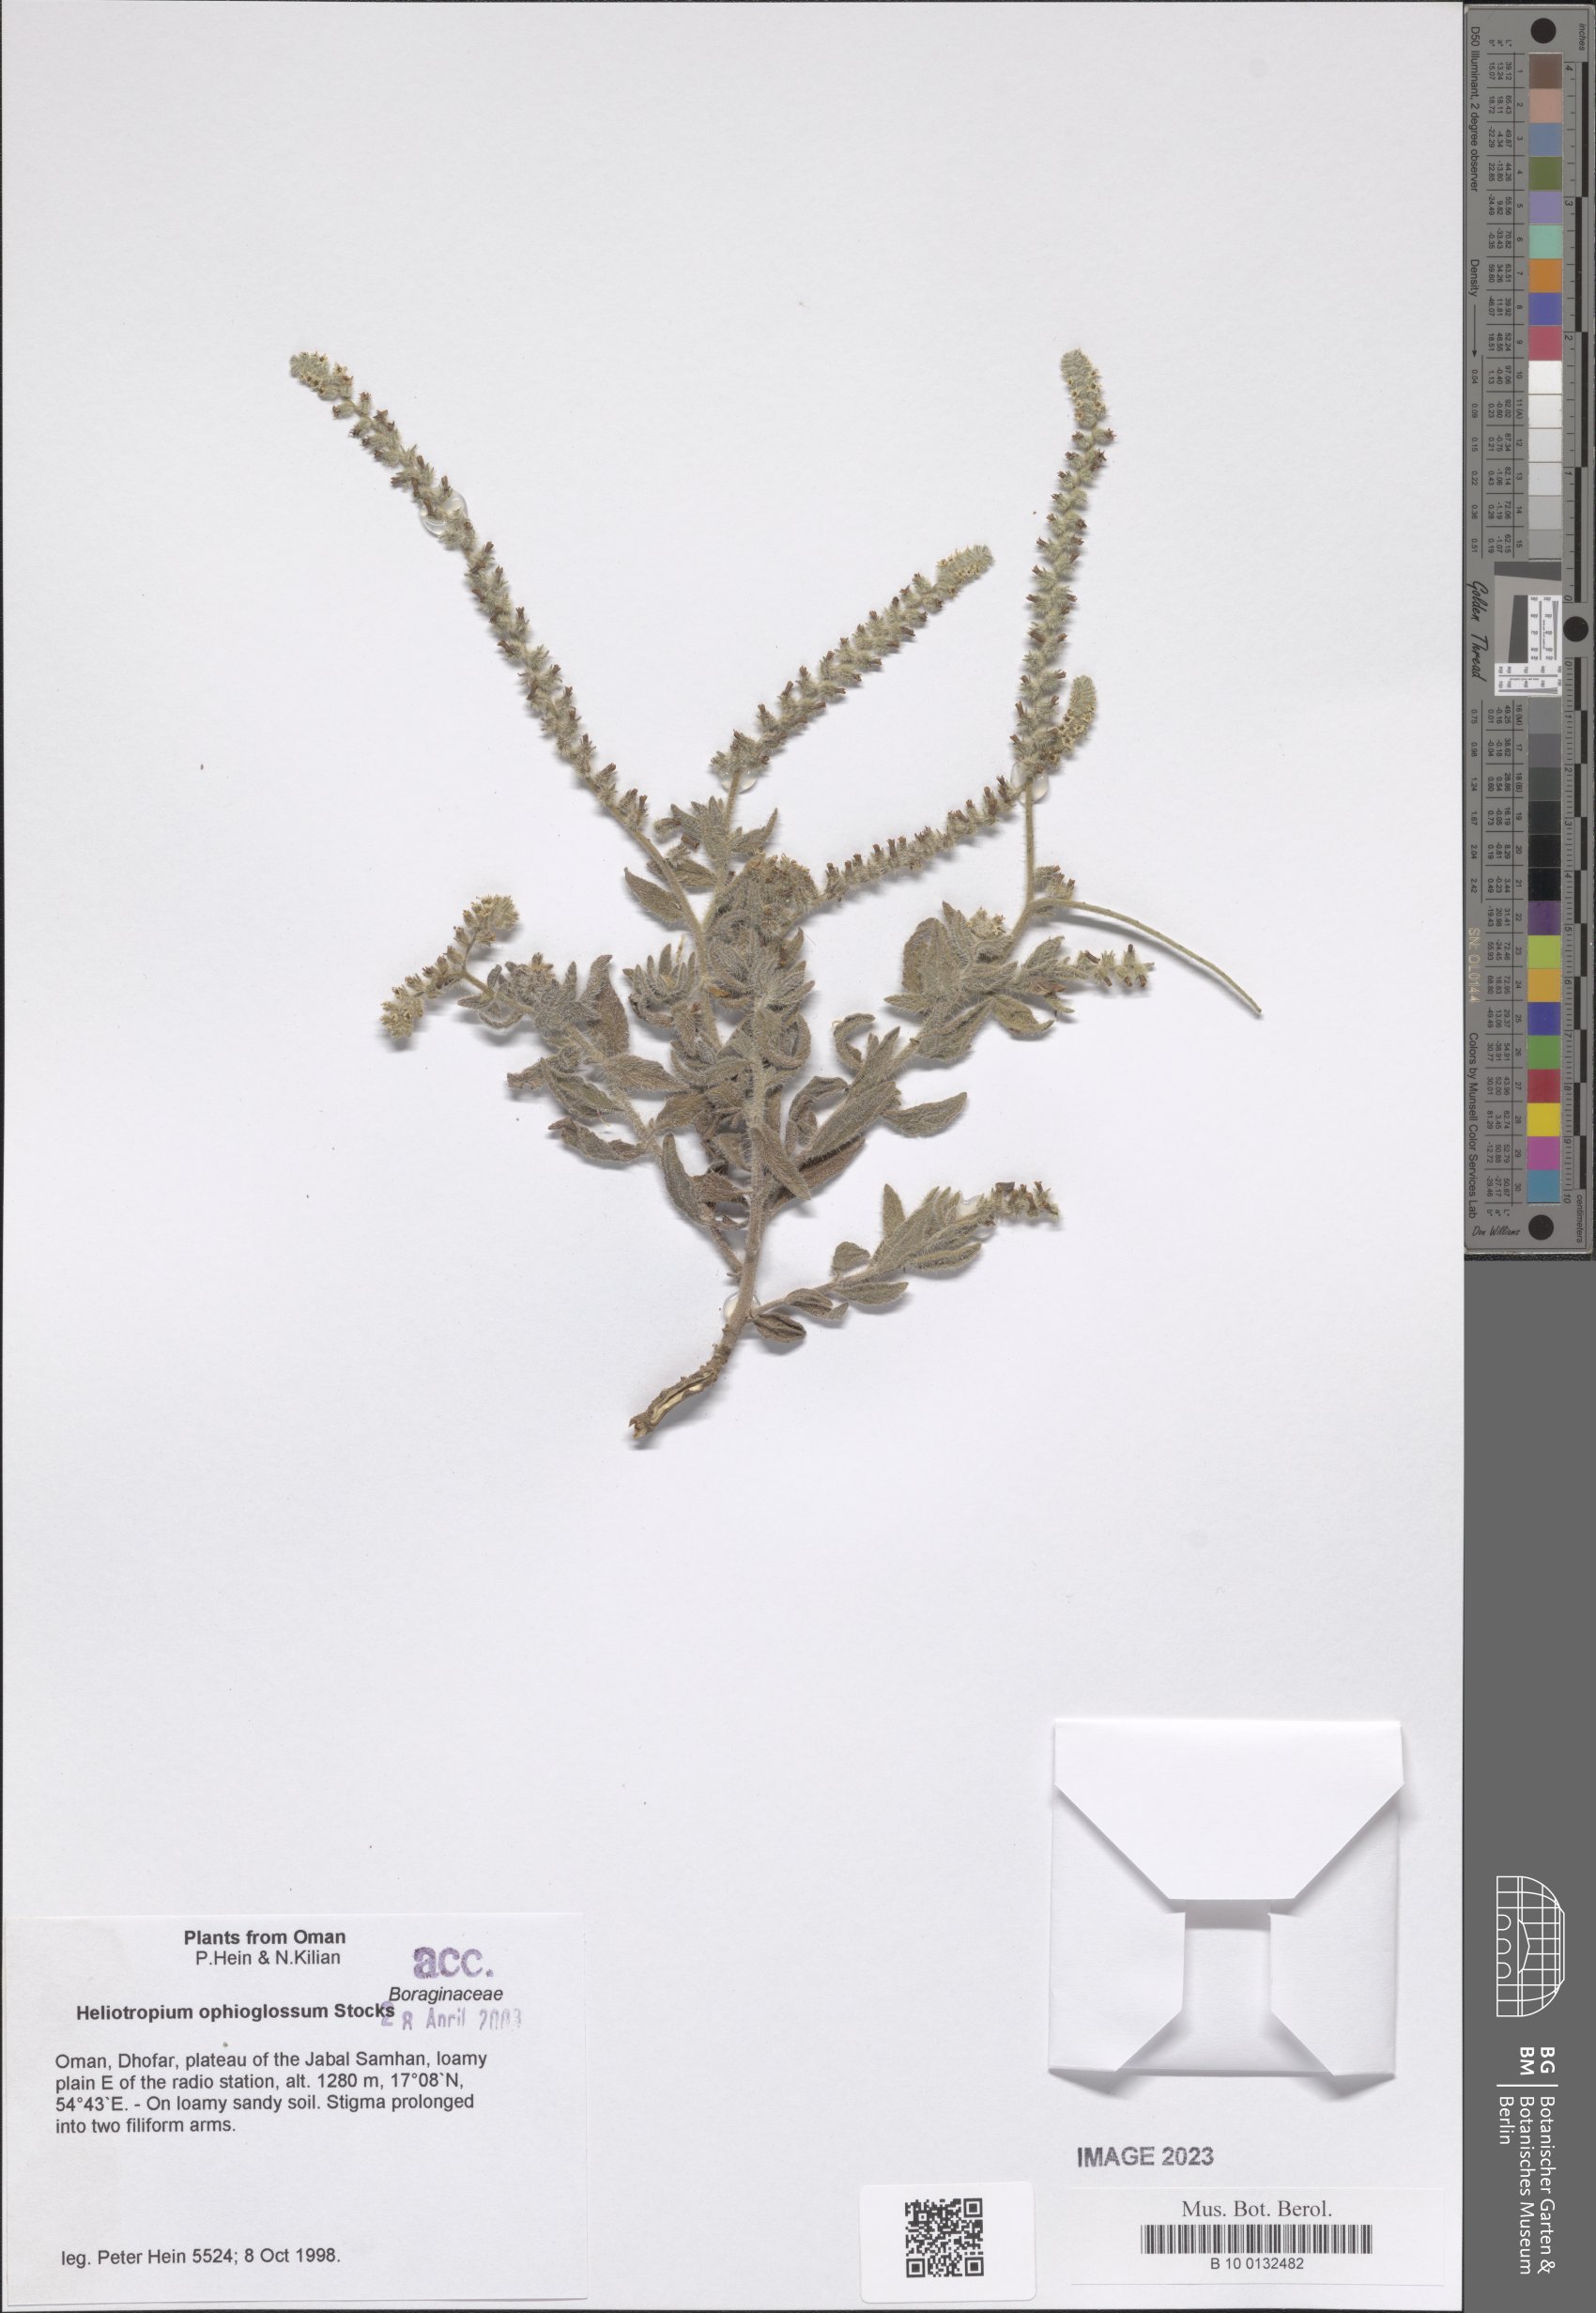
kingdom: Plantae
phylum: Tracheophyta
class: Magnoliopsida
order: Boraginales
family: Heliotropiaceae
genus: Heliotropium
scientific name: Heliotropium ophioglossum
